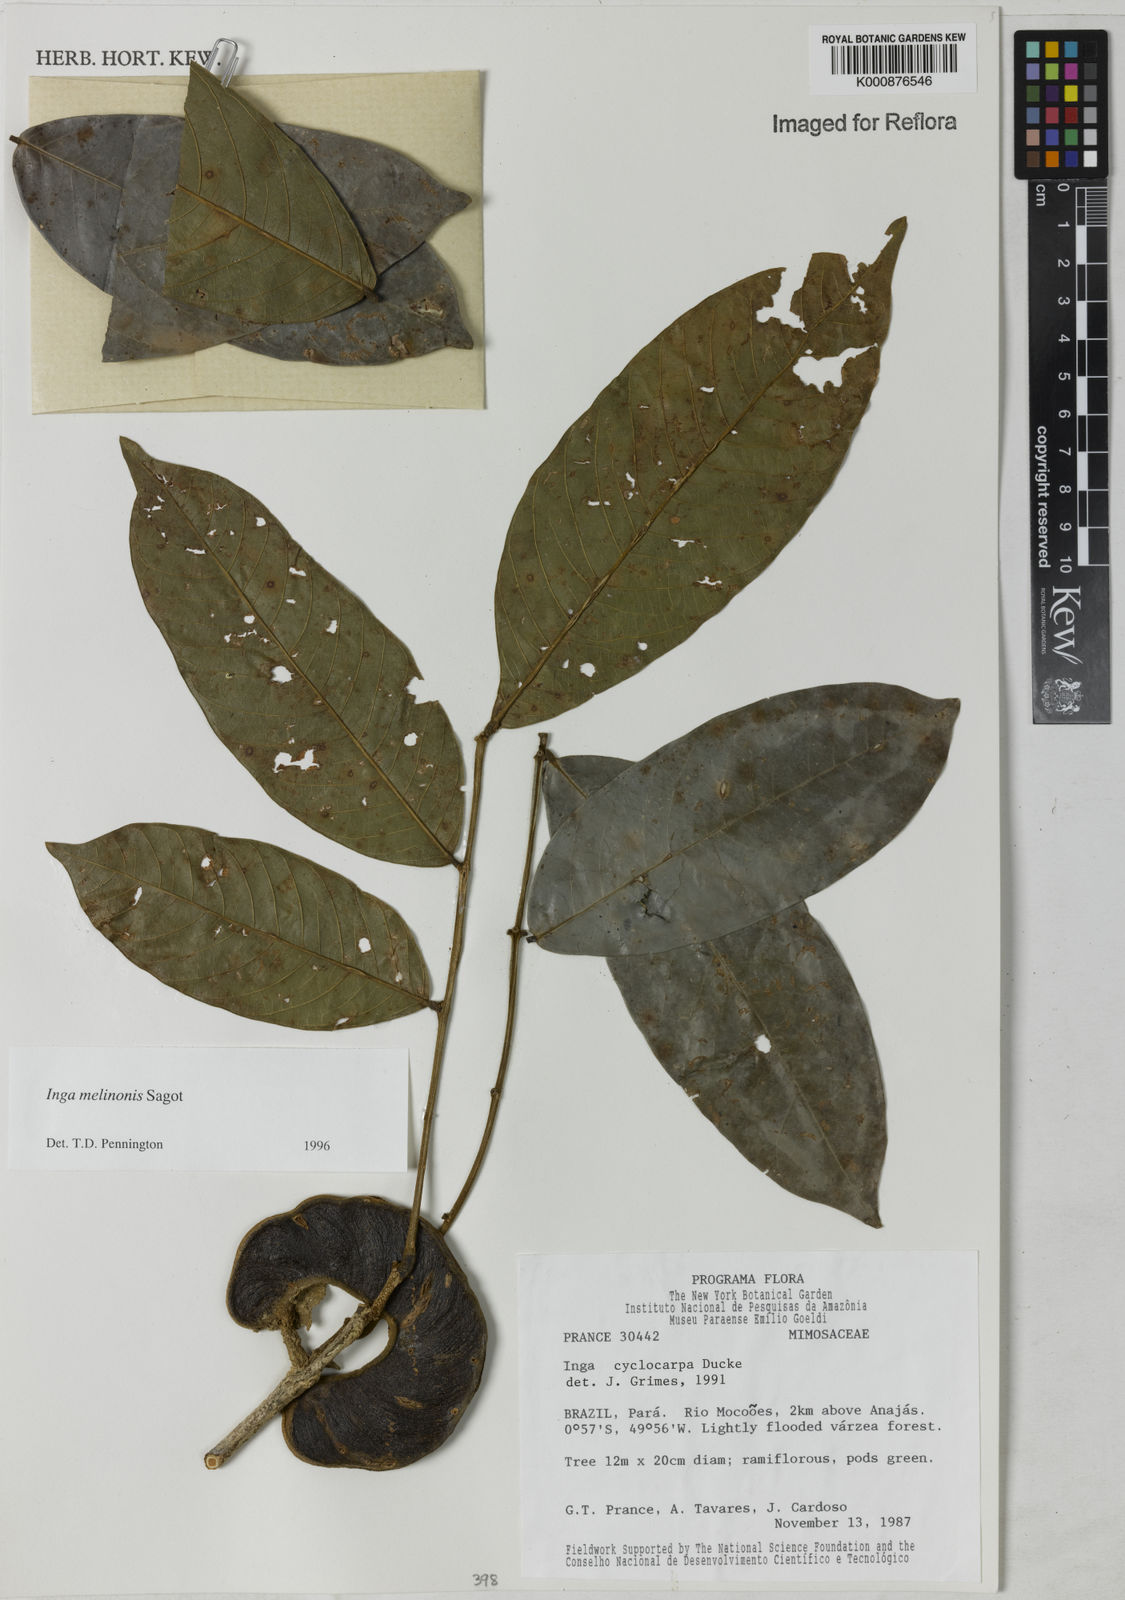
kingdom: Plantae
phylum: Tracheophyta
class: Magnoliopsida
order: Fabales
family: Fabaceae
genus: Inga
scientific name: Inga ruiziana
